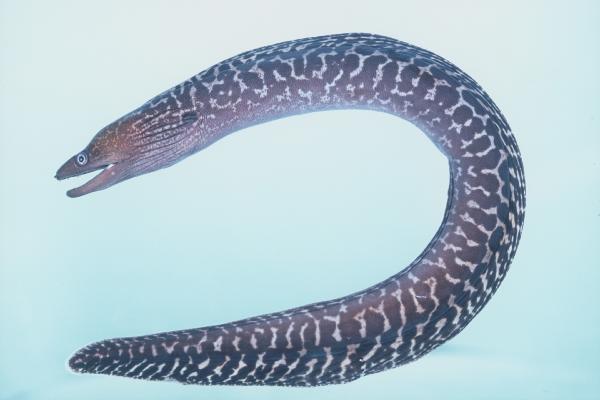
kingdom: Animalia
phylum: Chordata
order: Anguilliformes
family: Muraenidae
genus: Gymnothorax
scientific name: Gymnothorax undulatus
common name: Leopard moray
